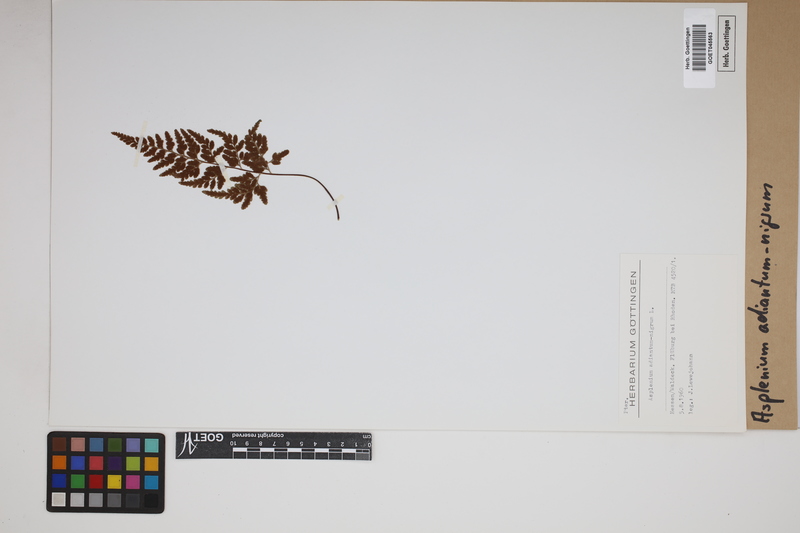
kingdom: Plantae
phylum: Tracheophyta
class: Polypodiopsida
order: Polypodiales
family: Aspleniaceae
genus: Asplenium
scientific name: Asplenium adiantum-nigrum
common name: Black spleenwort
